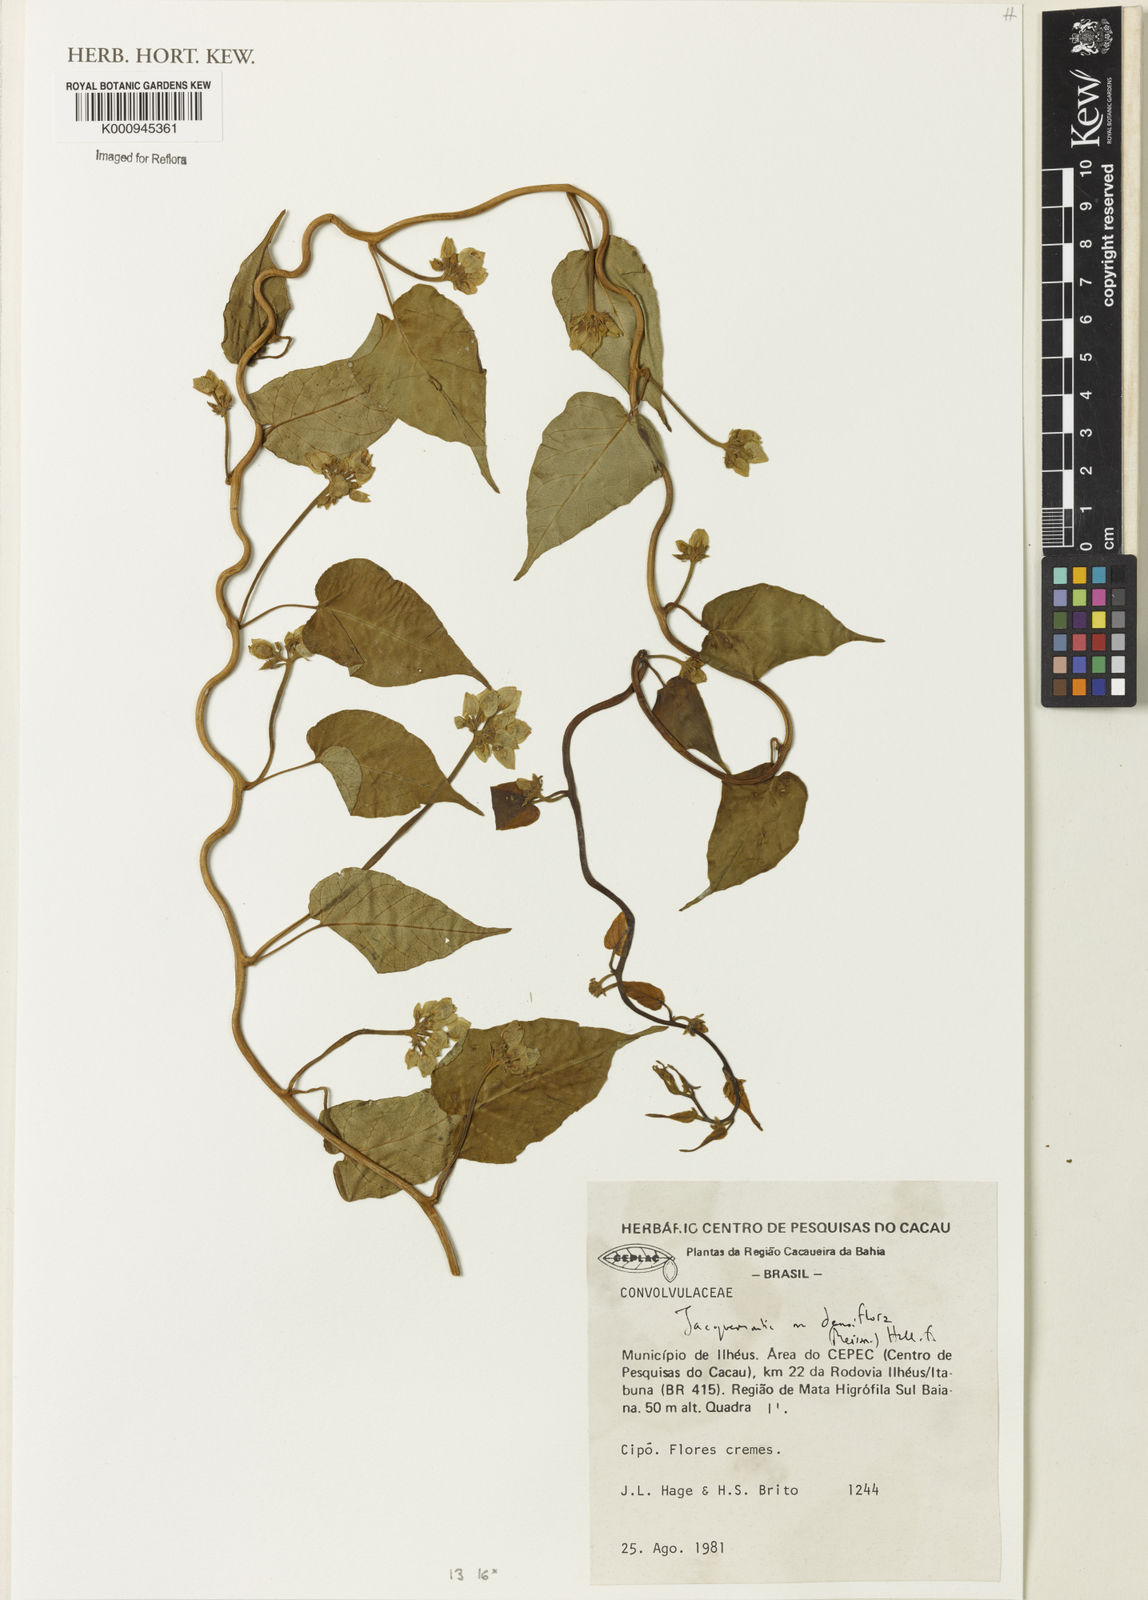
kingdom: Plantae
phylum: Tracheophyta
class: Magnoliopsida
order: Solanales
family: Convolvulaceae
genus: Jacquemontia
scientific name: Jacquemontia densiflora
